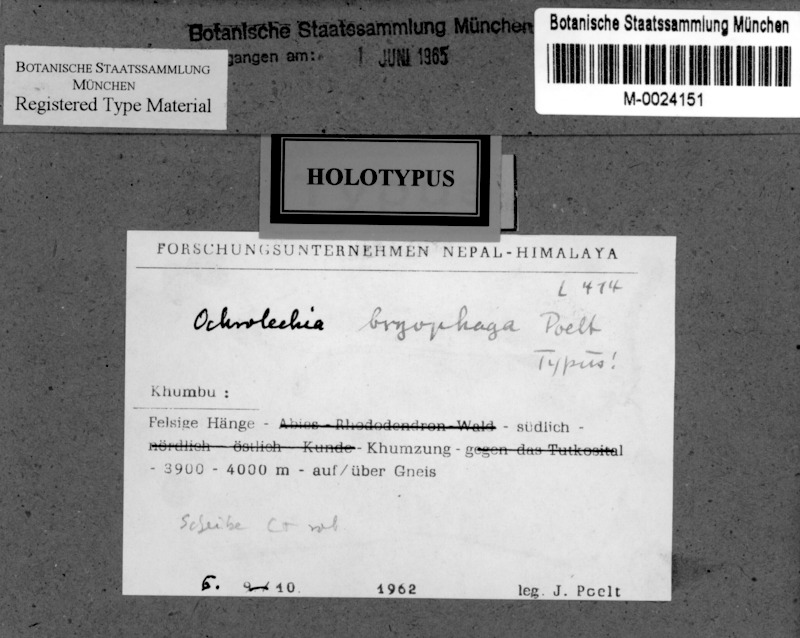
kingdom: Fungi
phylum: Ascomycota
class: Lecanoromycetes
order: Pertusariales
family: Ochrolechiaceae
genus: Ochrolechia
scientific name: Ochrolechia bryophaga
